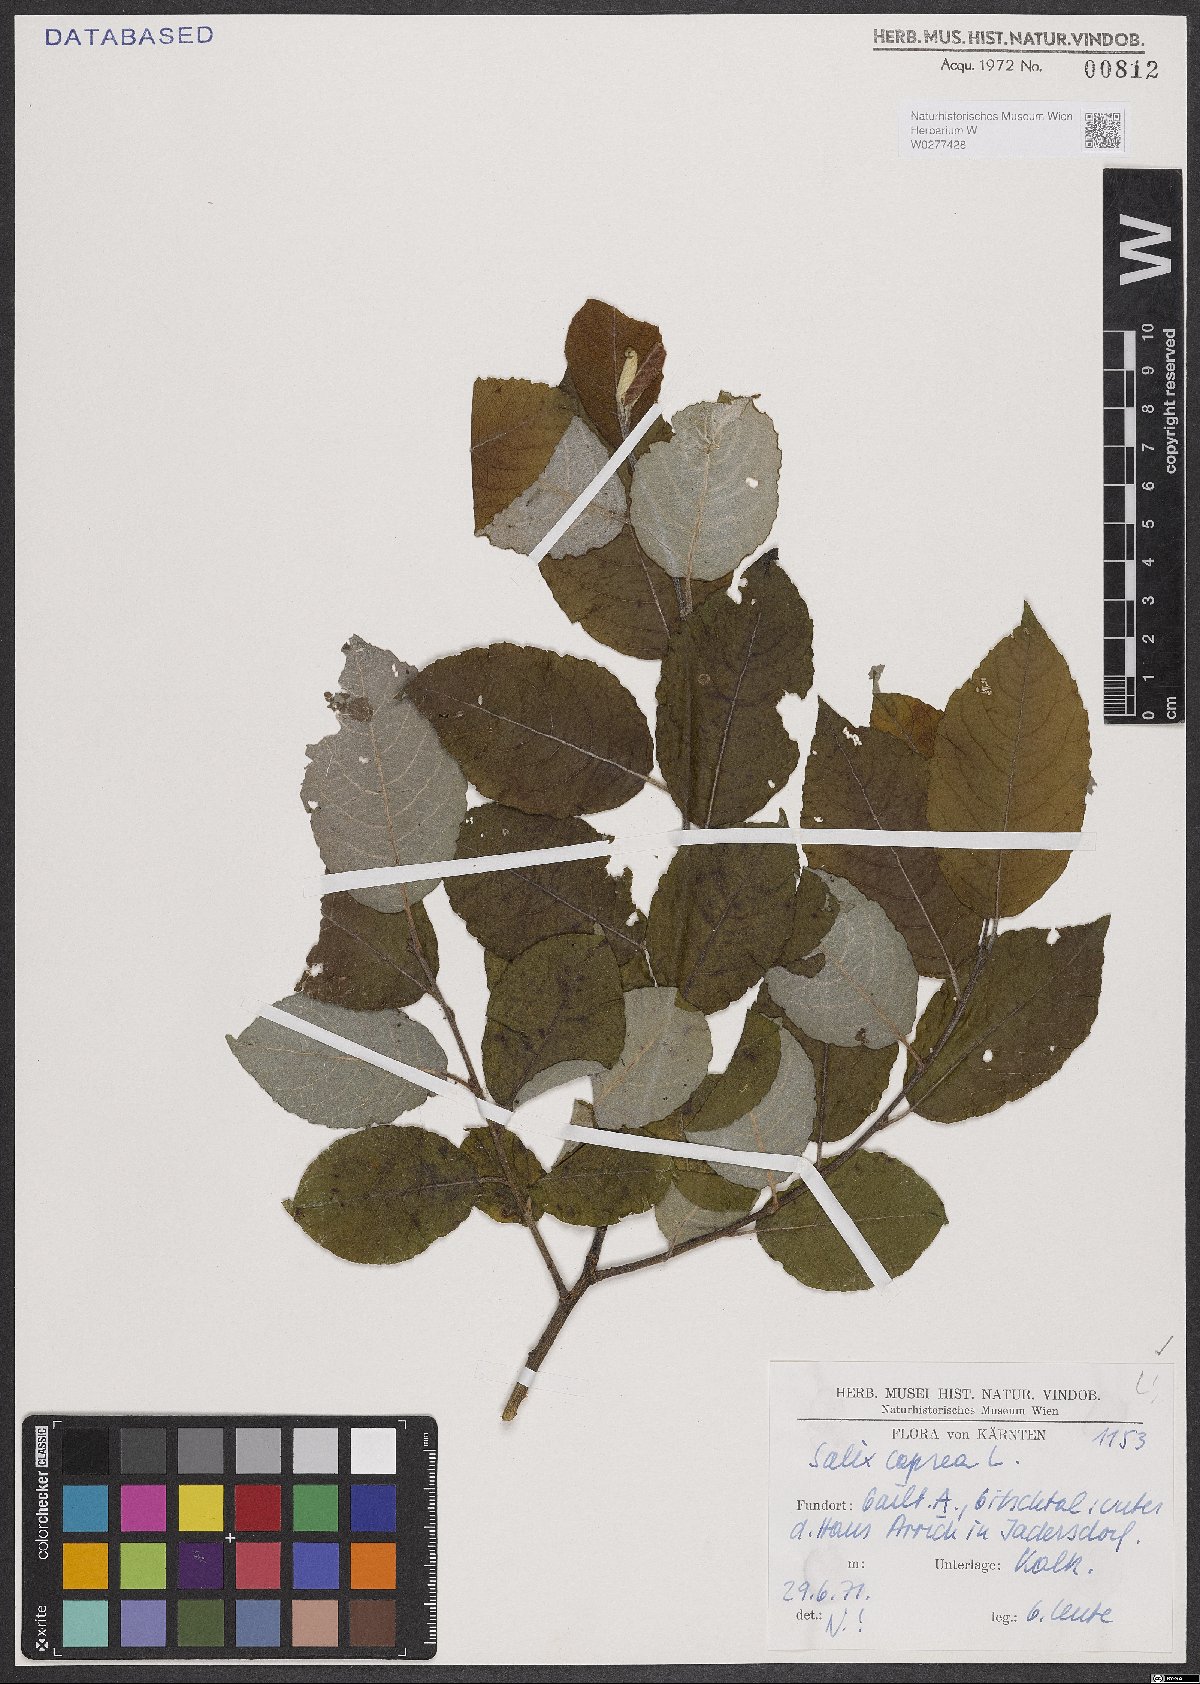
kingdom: Plantae
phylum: Tracheophyta
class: Magnoliopsida
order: Malpighiales
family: Salicaceae
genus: Salix
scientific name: Salix caprea
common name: Goat willow
